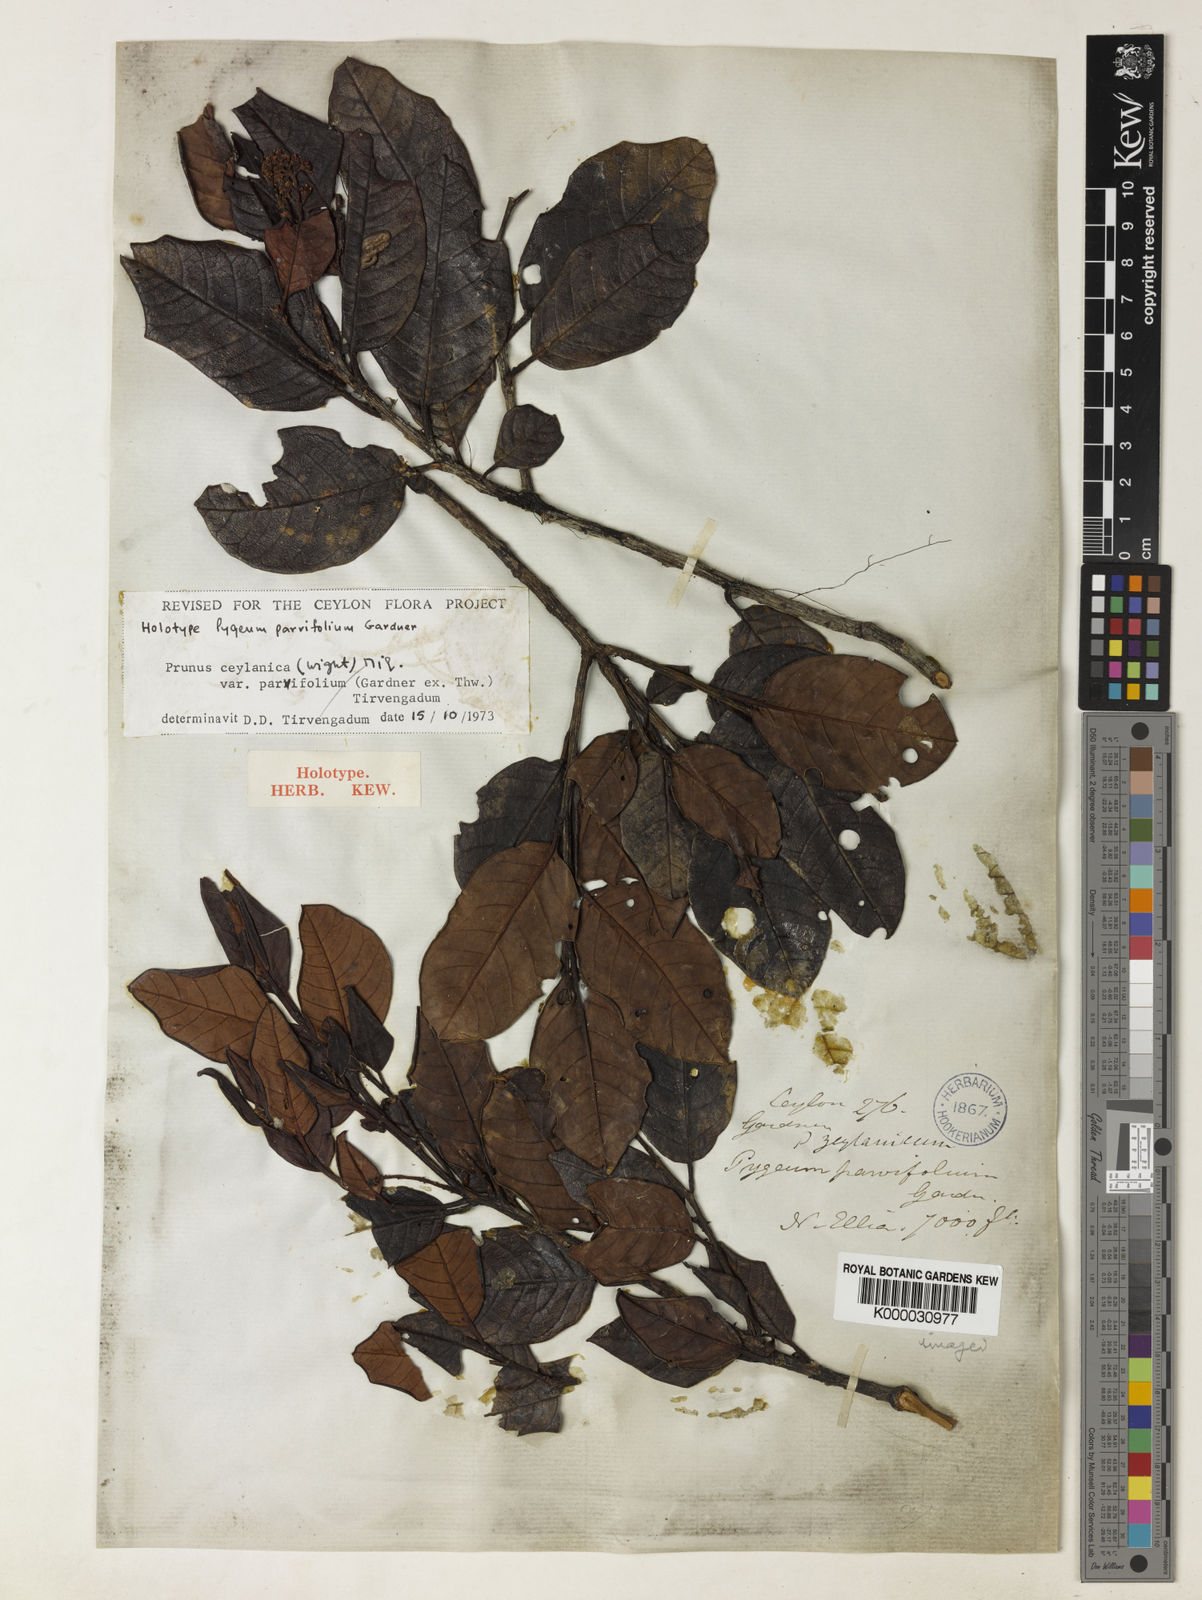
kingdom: Plantae
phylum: Tracheophyta
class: Magnoliopsida
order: Rosales
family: Rosaceae
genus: Prunus
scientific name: Prunus ceylanica
